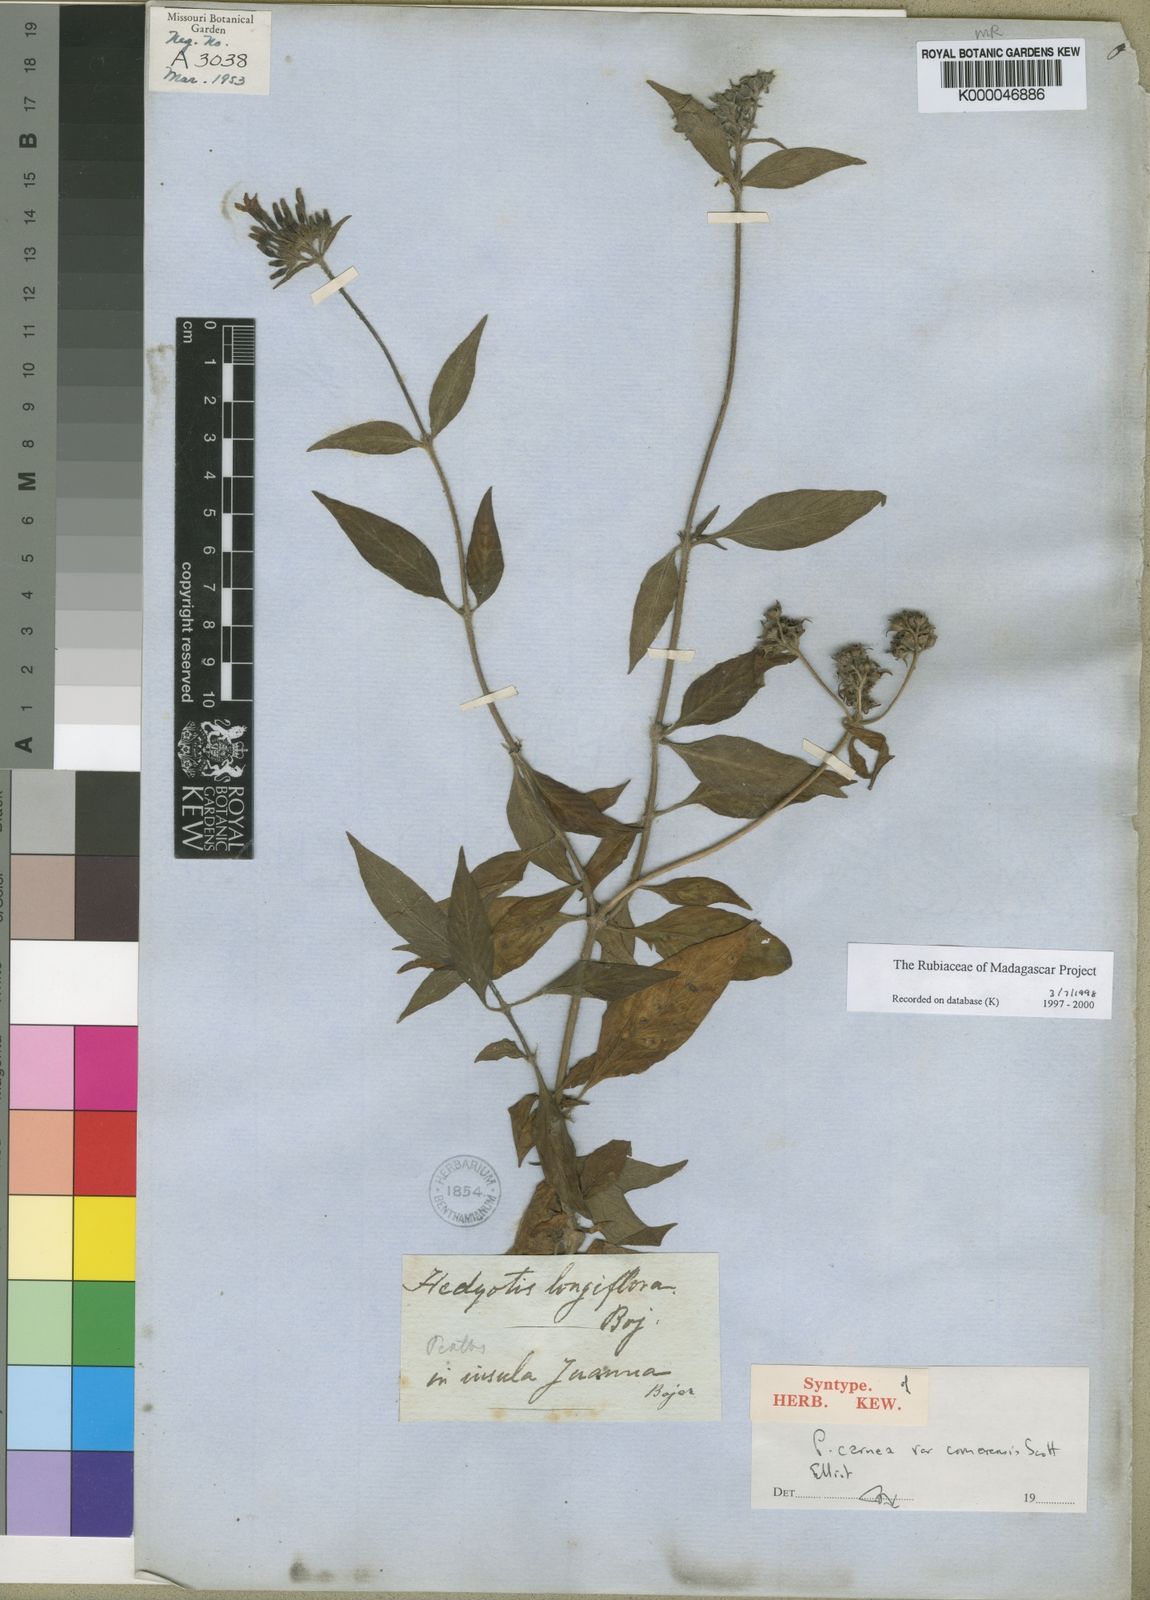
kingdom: Plantae
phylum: Tracheophyta
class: Magnoliopsida
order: Gentianales
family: Rubiaceae
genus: Pentas
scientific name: Pentas lanceolata
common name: Egyptian starcluster
